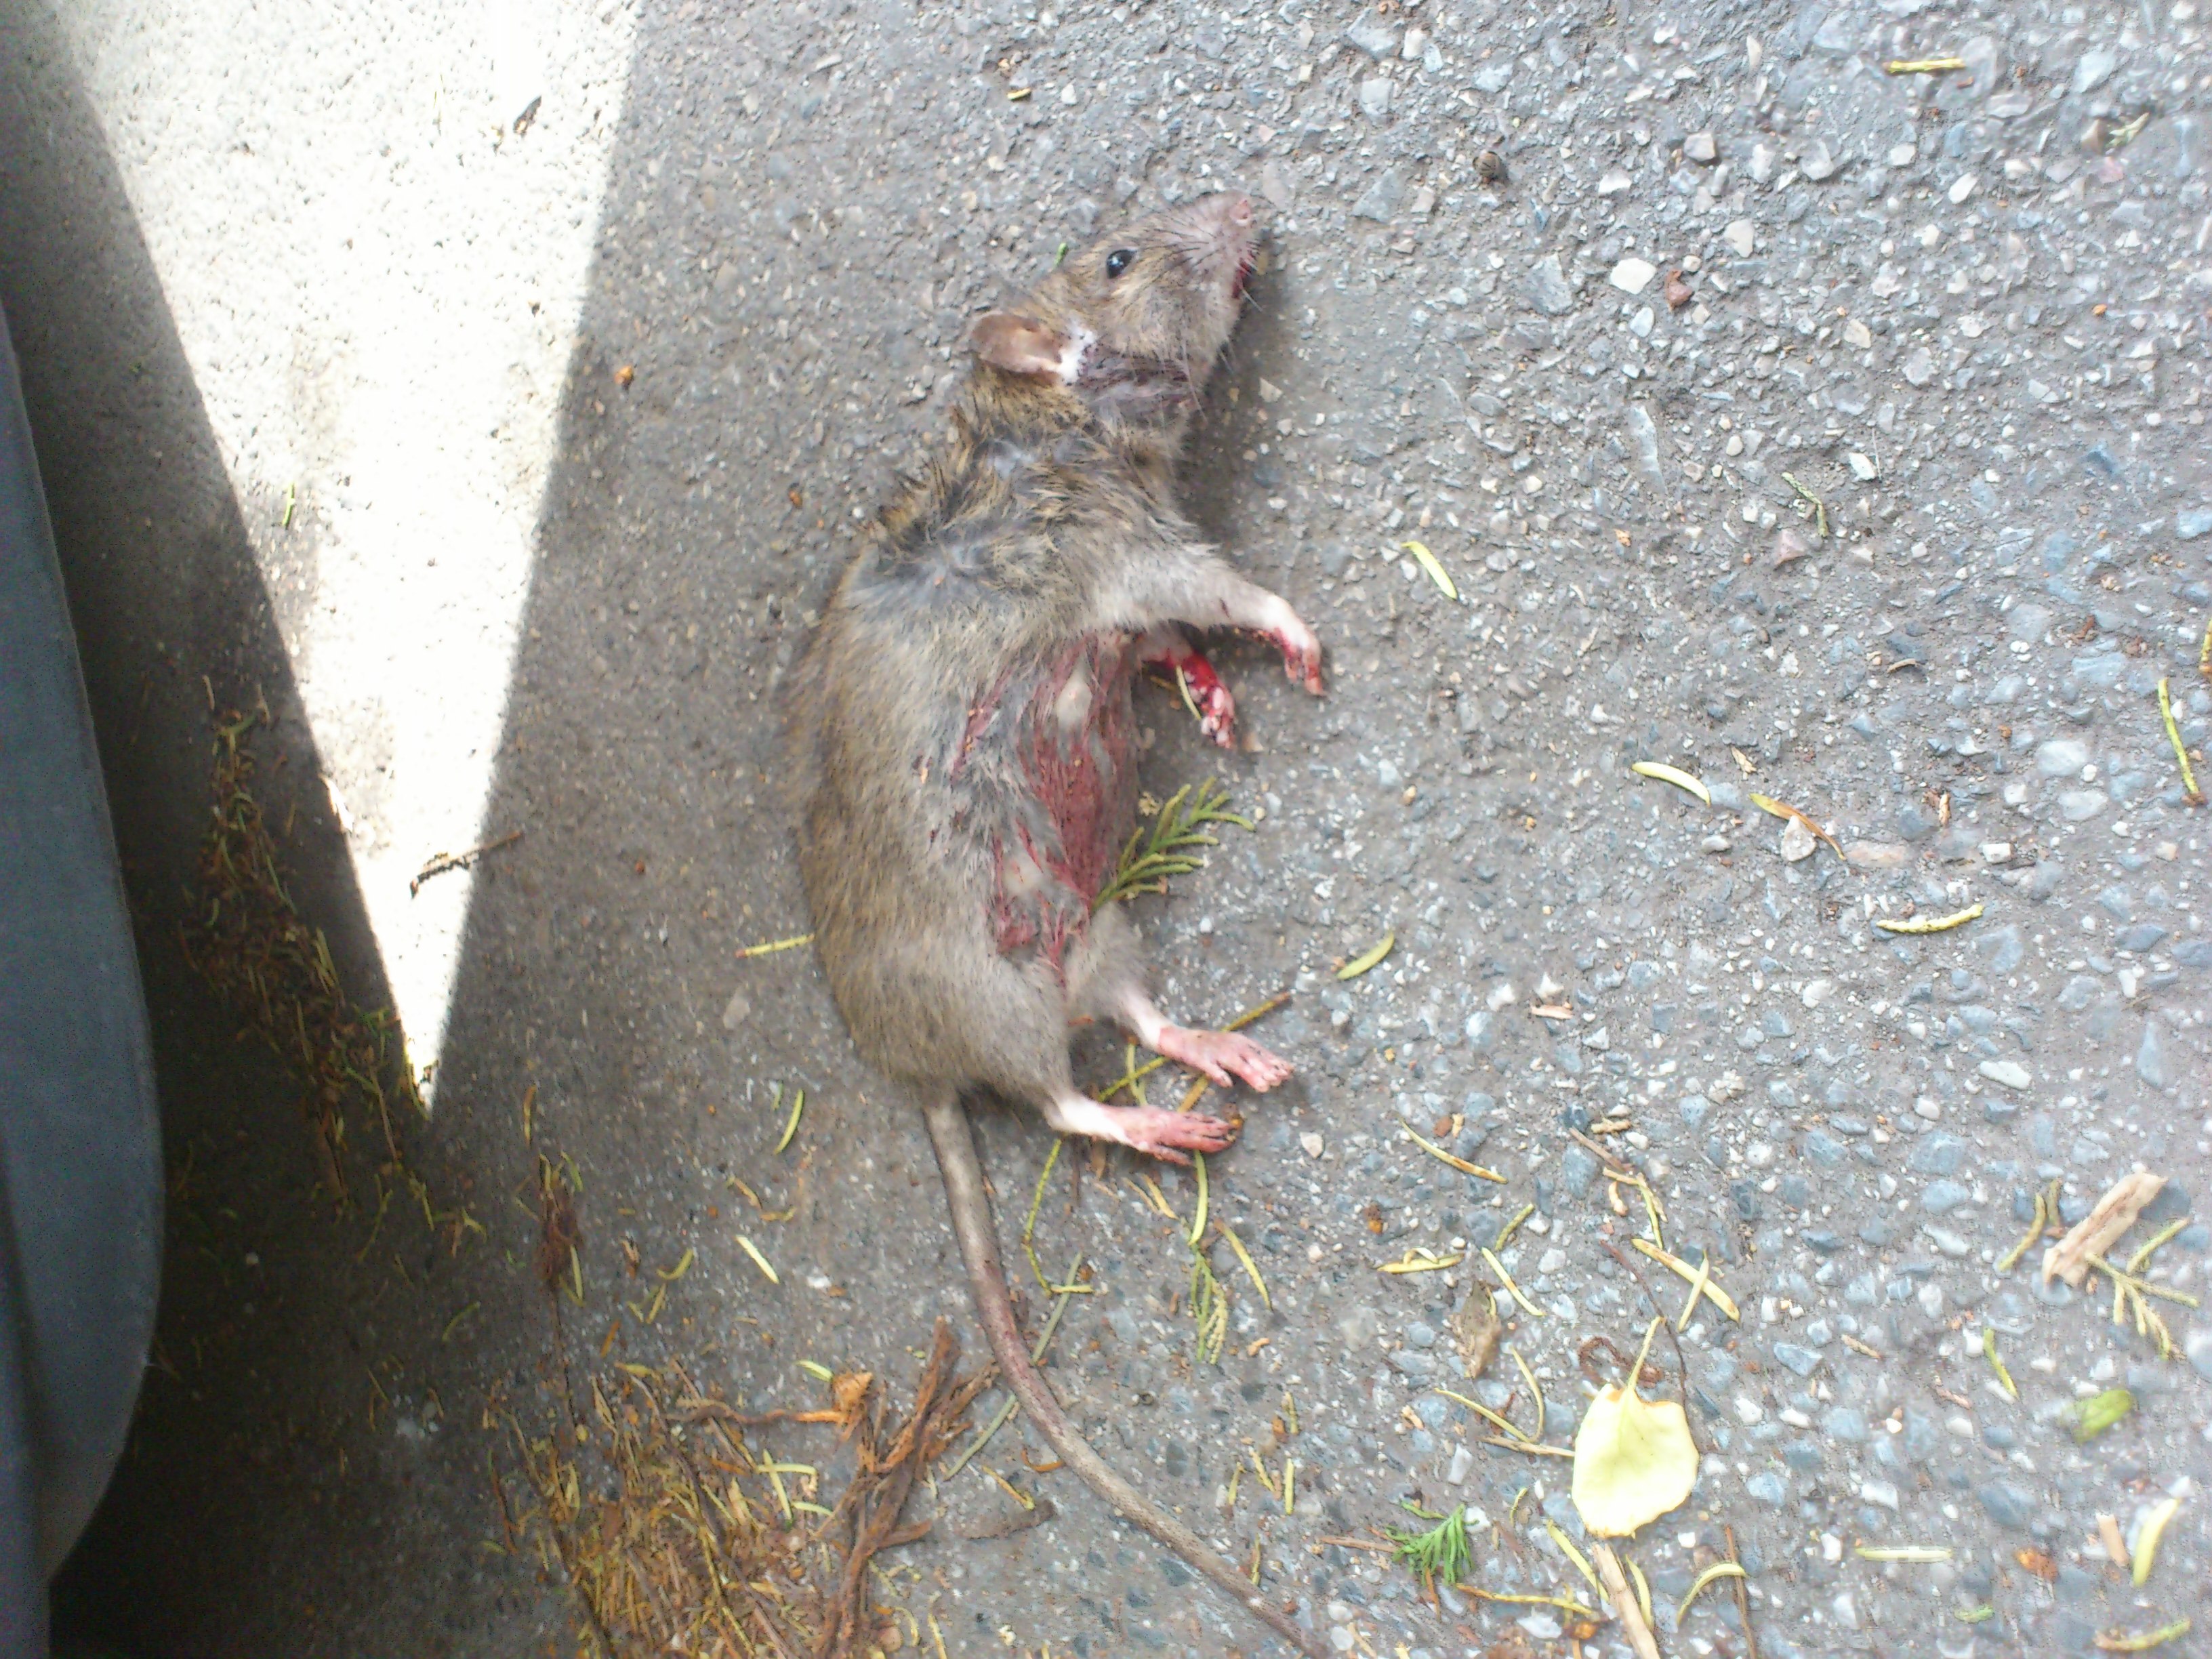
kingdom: Animalia
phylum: Chordata
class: Mammalia
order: Rodentia
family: Muridae
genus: Rattus
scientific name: Rattus norvegicus
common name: Brown rat
